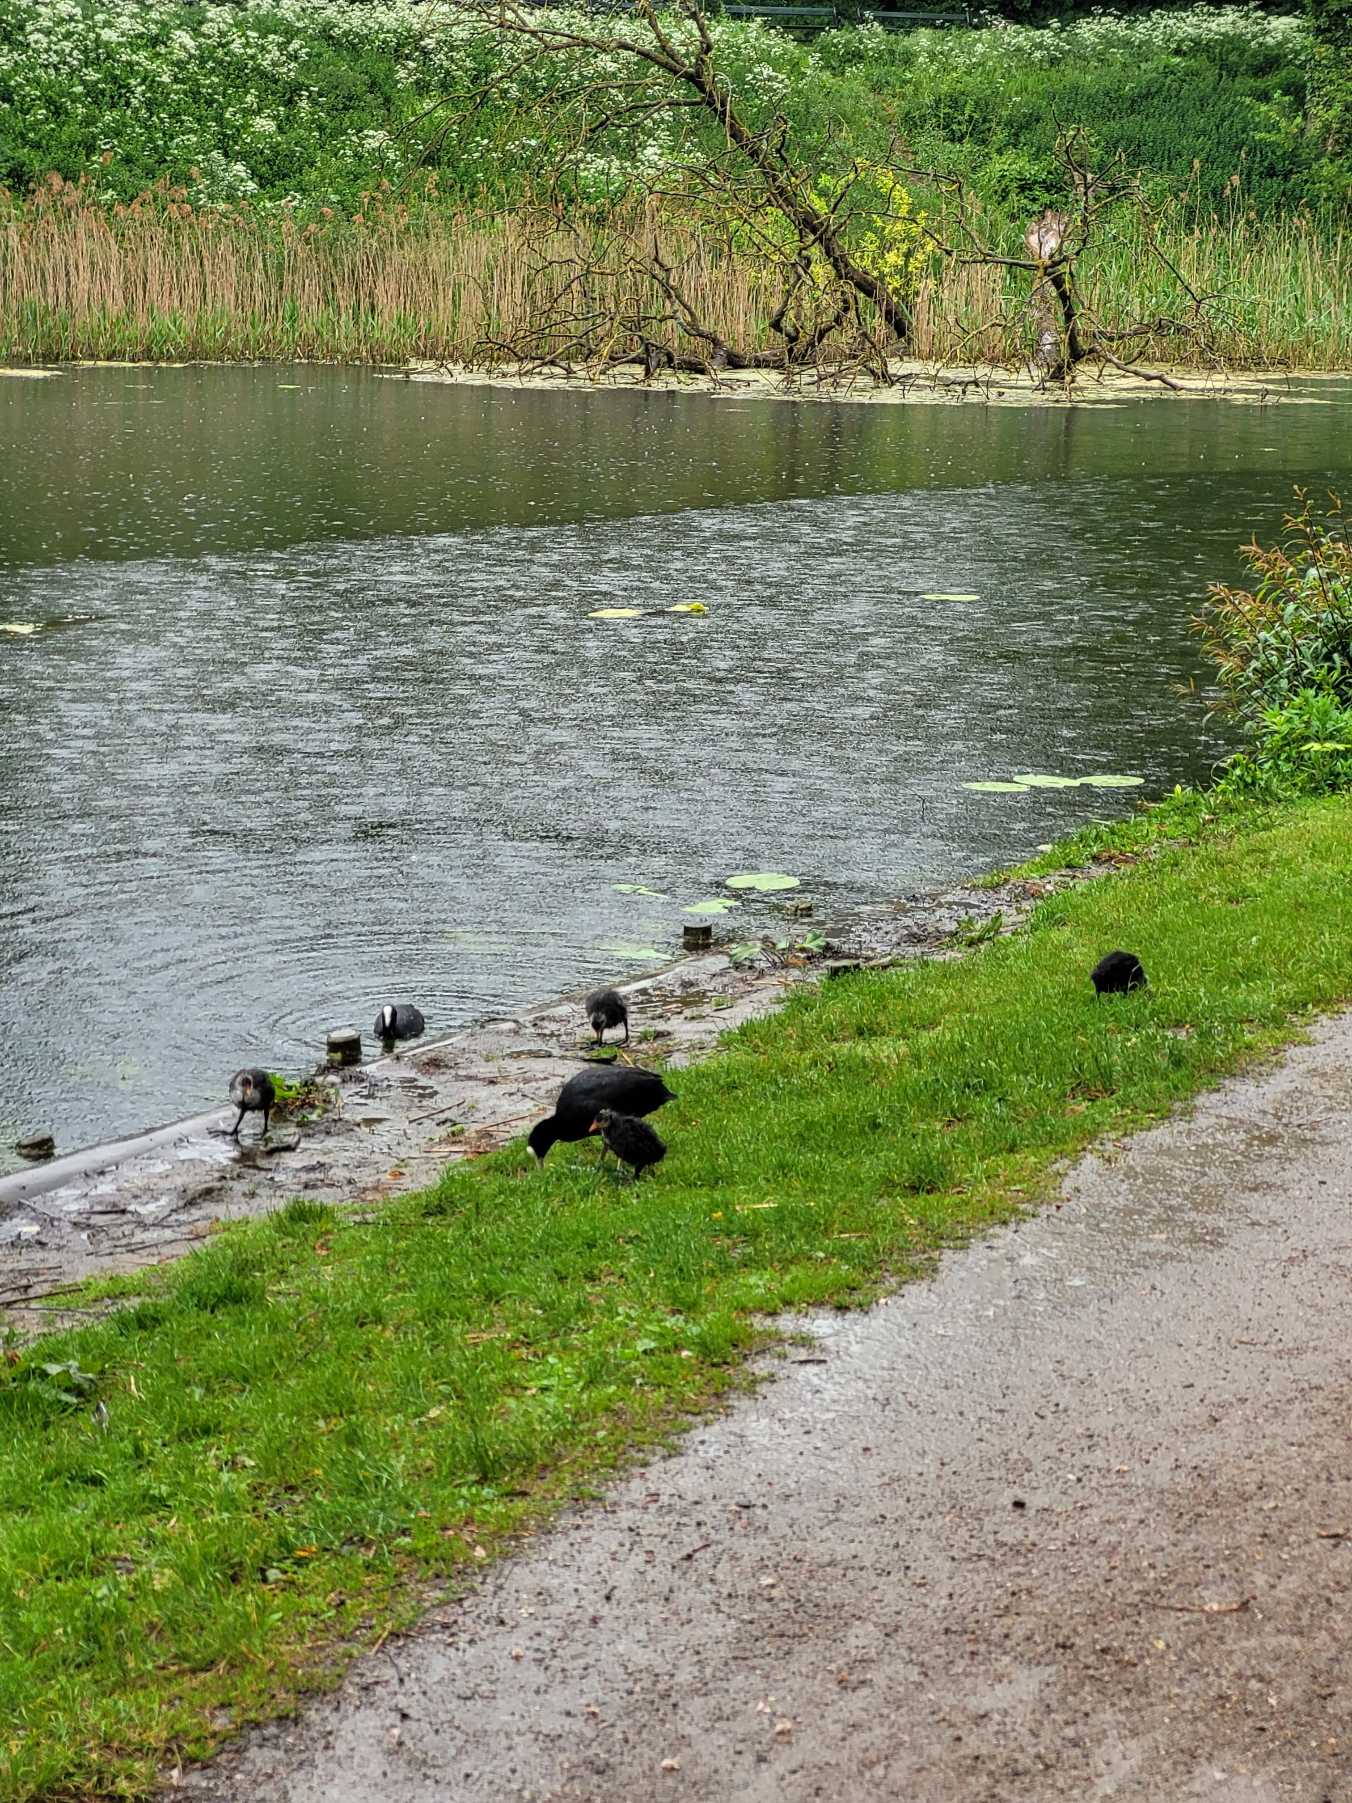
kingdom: Animalia
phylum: Chordata
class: Aves
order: Gruiformes
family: Rallidae
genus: Fulica
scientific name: Fulica atra
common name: Blishøne
